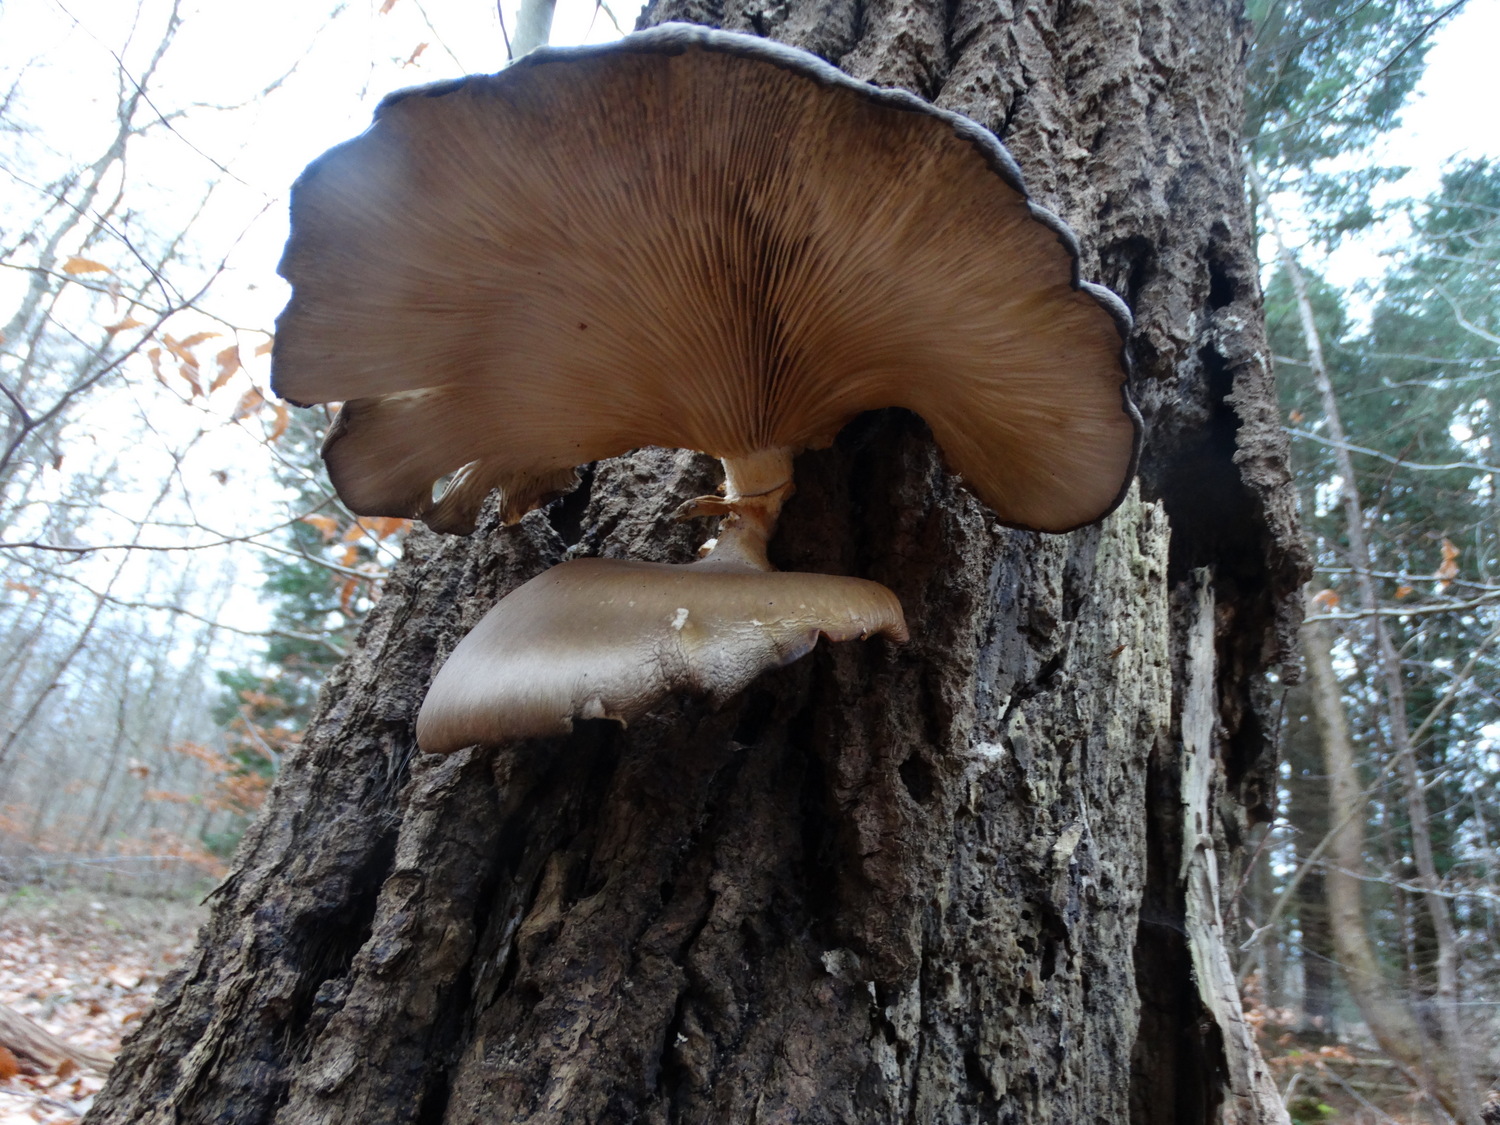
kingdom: Fungi
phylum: Basidiomycota
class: Agaricomycetes
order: Agaricales
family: Pleurotaceae
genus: Pleurotus
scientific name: Pleurotus ostreatus
